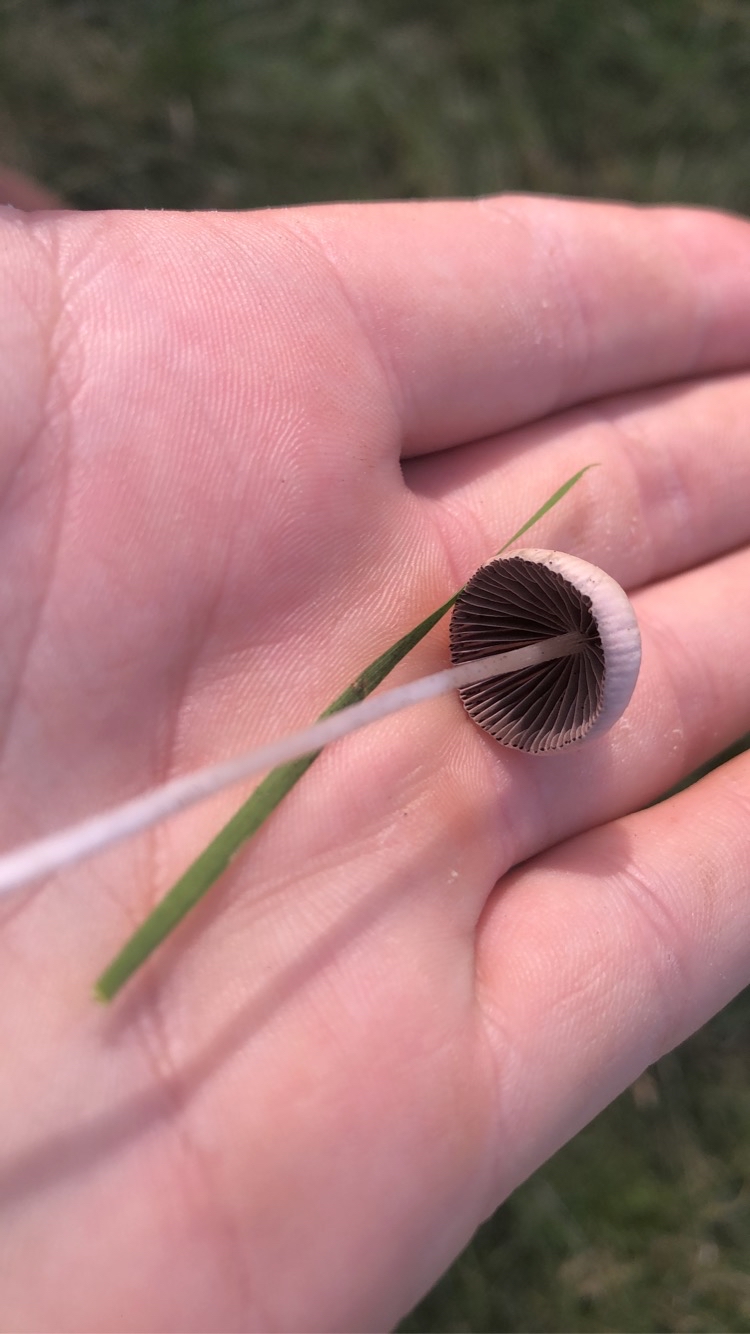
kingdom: Fungi
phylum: Basidiomycota
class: Agaricomycetes
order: Agaricales
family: Psathyrellaceae
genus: Psathyrella
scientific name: Psathyrella
